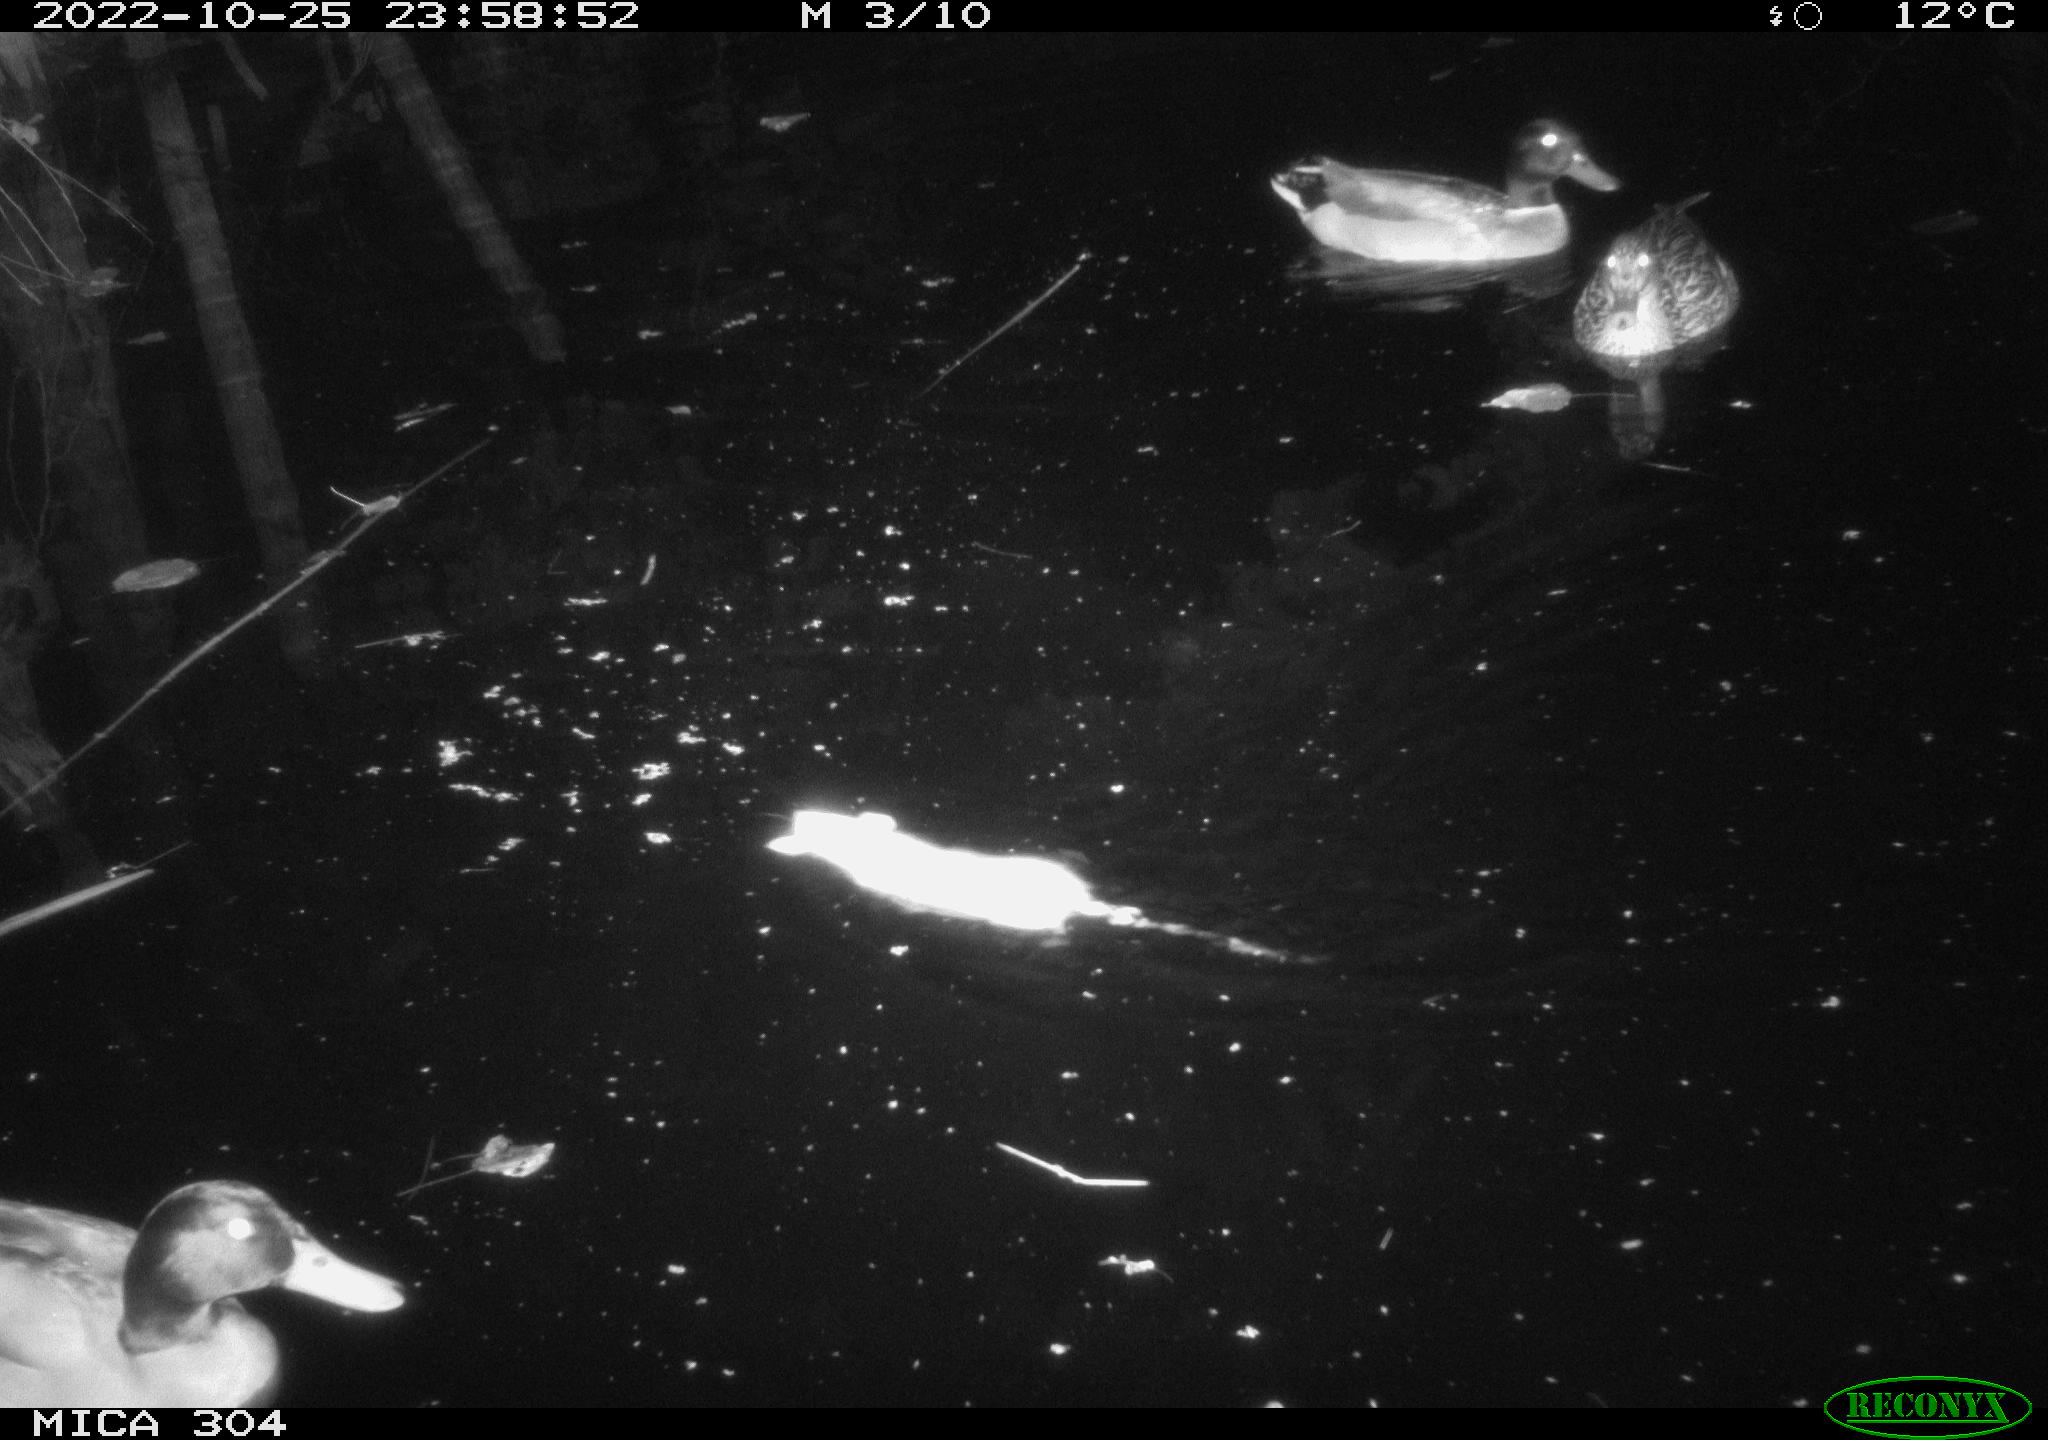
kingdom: Animalia
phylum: Chordata
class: Aves
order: Anseriformes
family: Anatidae
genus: Anas
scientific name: Anas
